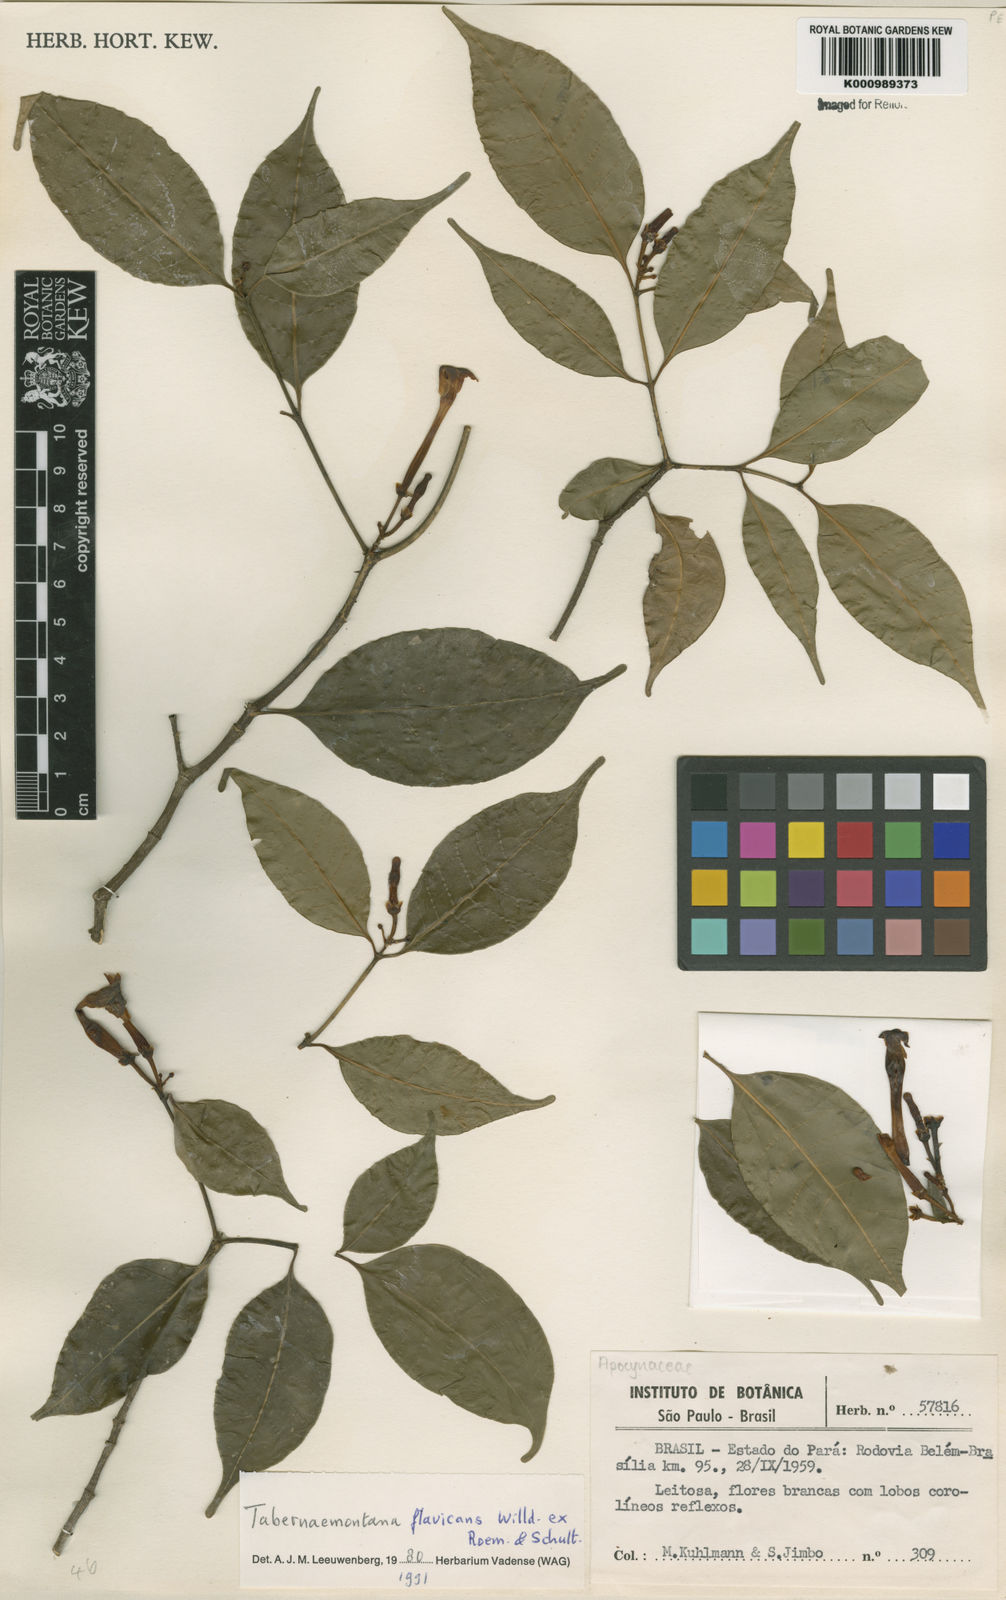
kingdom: Plantae
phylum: Tracheophyta
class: Magnoliopsida
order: Gentianales
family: Apocynaceae
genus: Tabernaemontana
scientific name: Tabernaemontana flavicans
